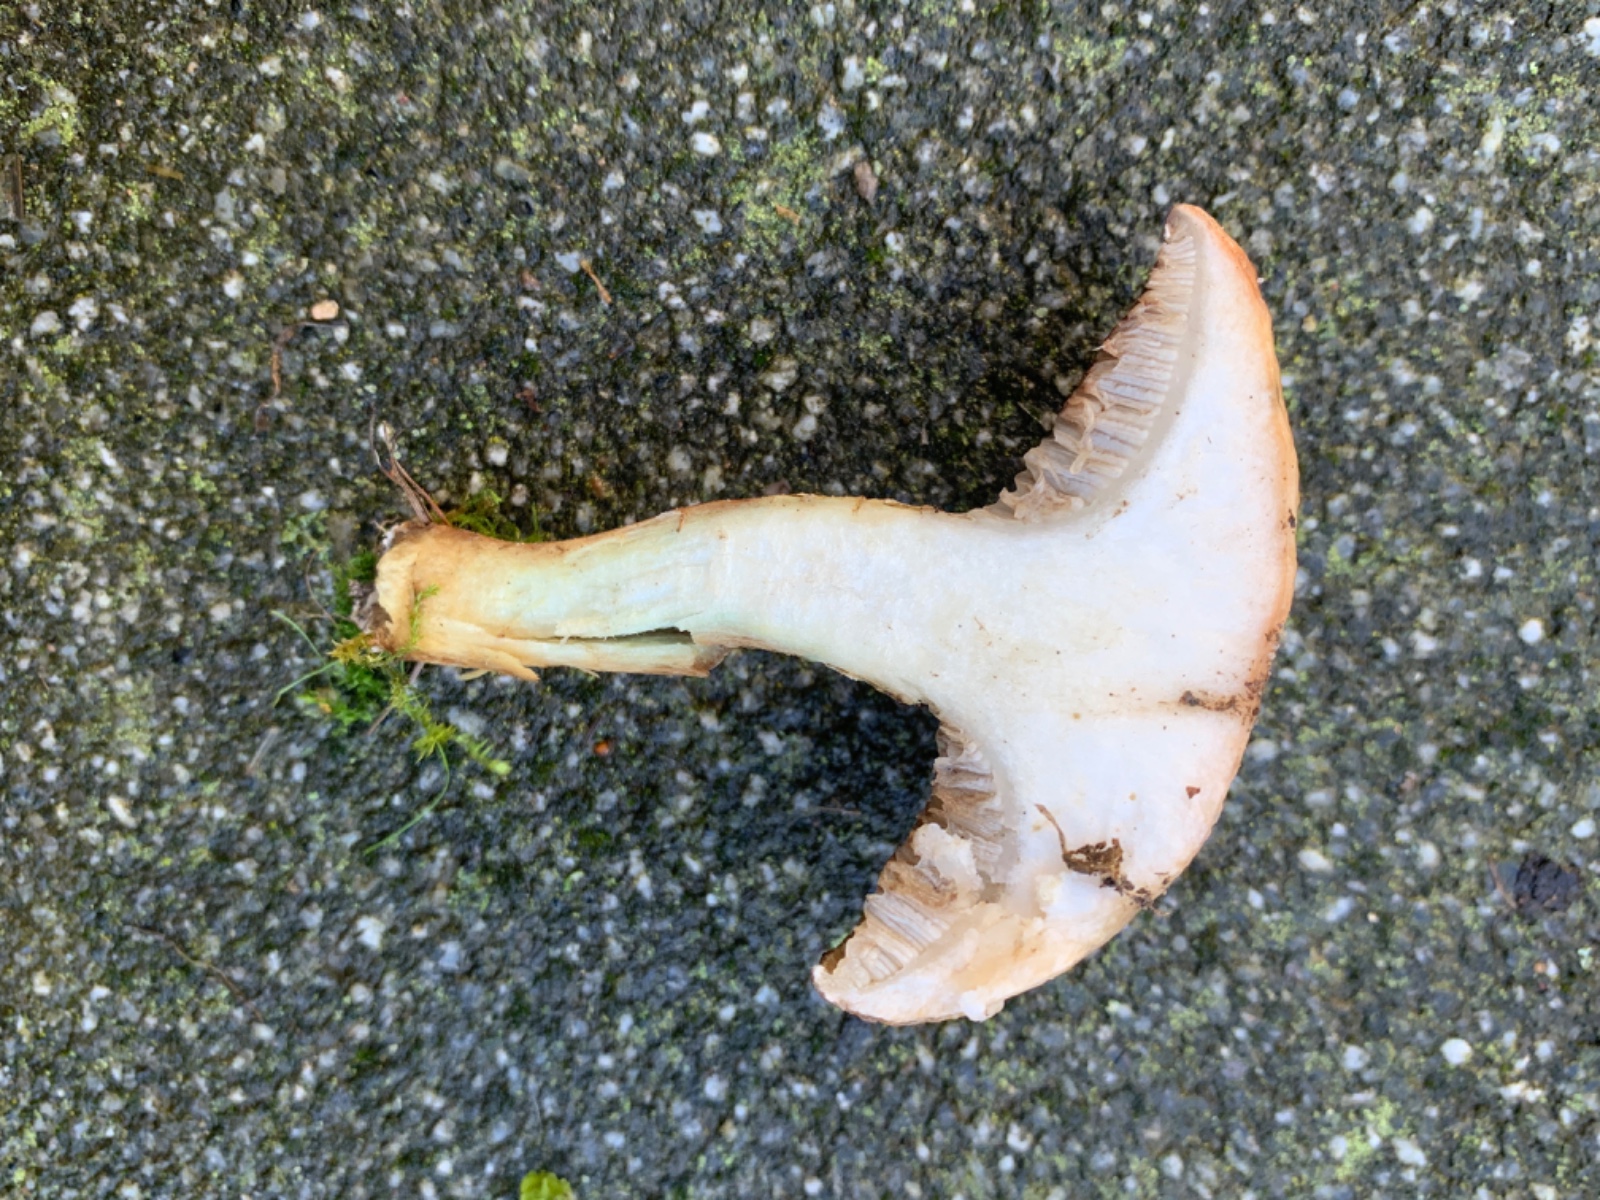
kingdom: Fungi
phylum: Basidiomycota
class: Agaricomycetes
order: Boletales
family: Suillaceae
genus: Suillus
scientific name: Suillus viscidus
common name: olivengrå slimrørhat
